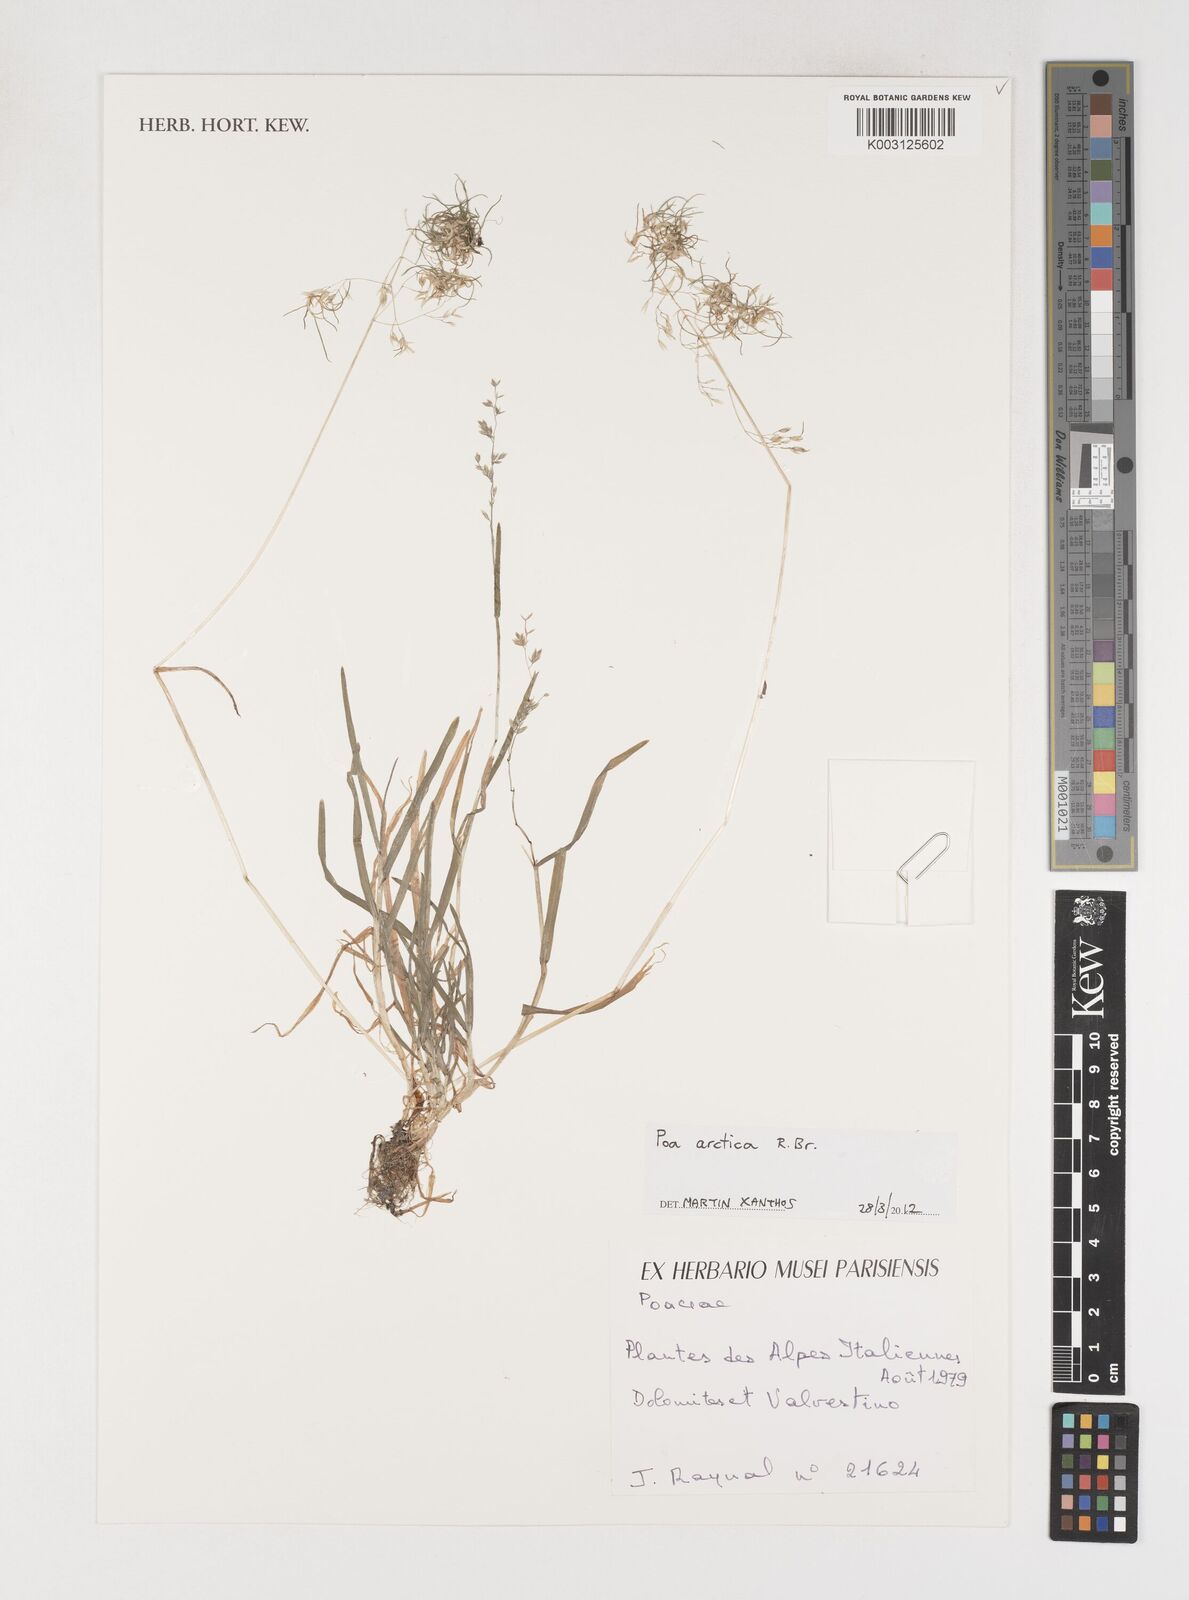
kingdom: Plantae
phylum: Tracheophyta
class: Liliopsida
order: Poales
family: Poaceae
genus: Poa
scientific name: Poa arctica
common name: Arctic bluegrass
